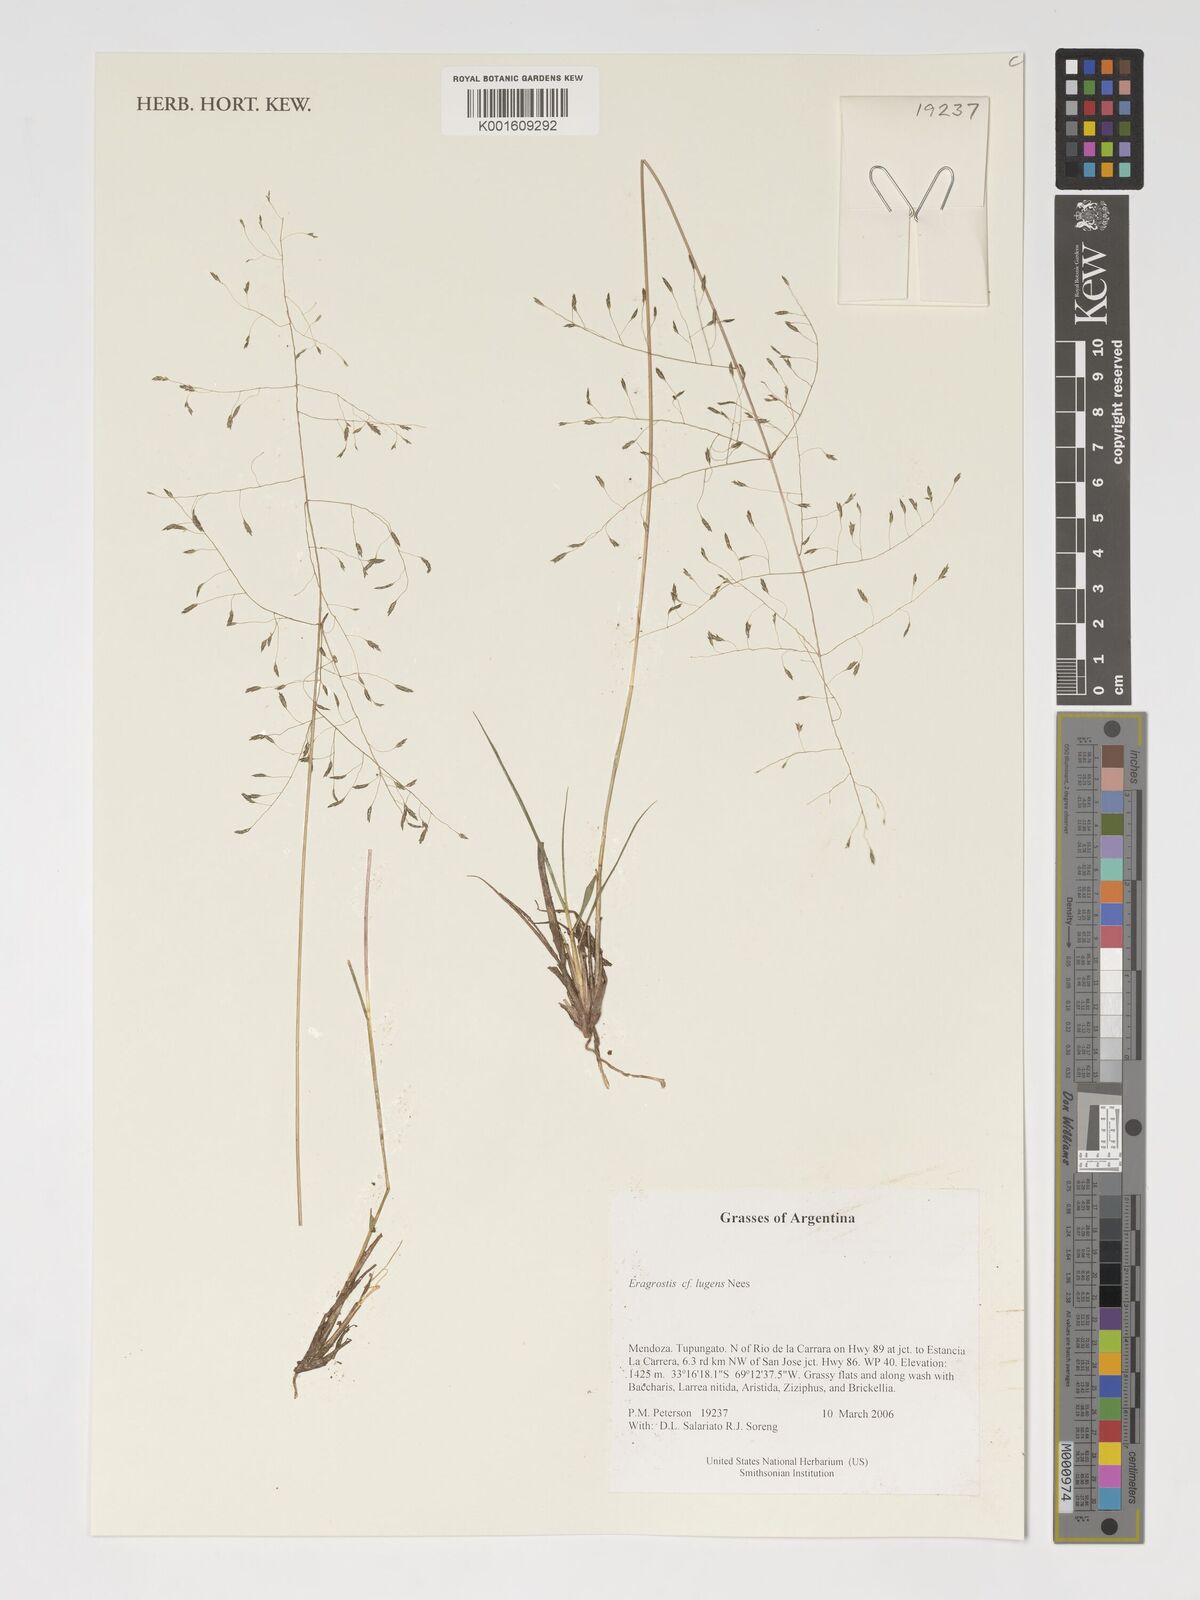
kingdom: Plantae
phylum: Tracheophyta
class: Liliopsida
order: Poales
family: Poaceae
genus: Eragrostis
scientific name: Eragrostis lugens
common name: Mourning love grass
